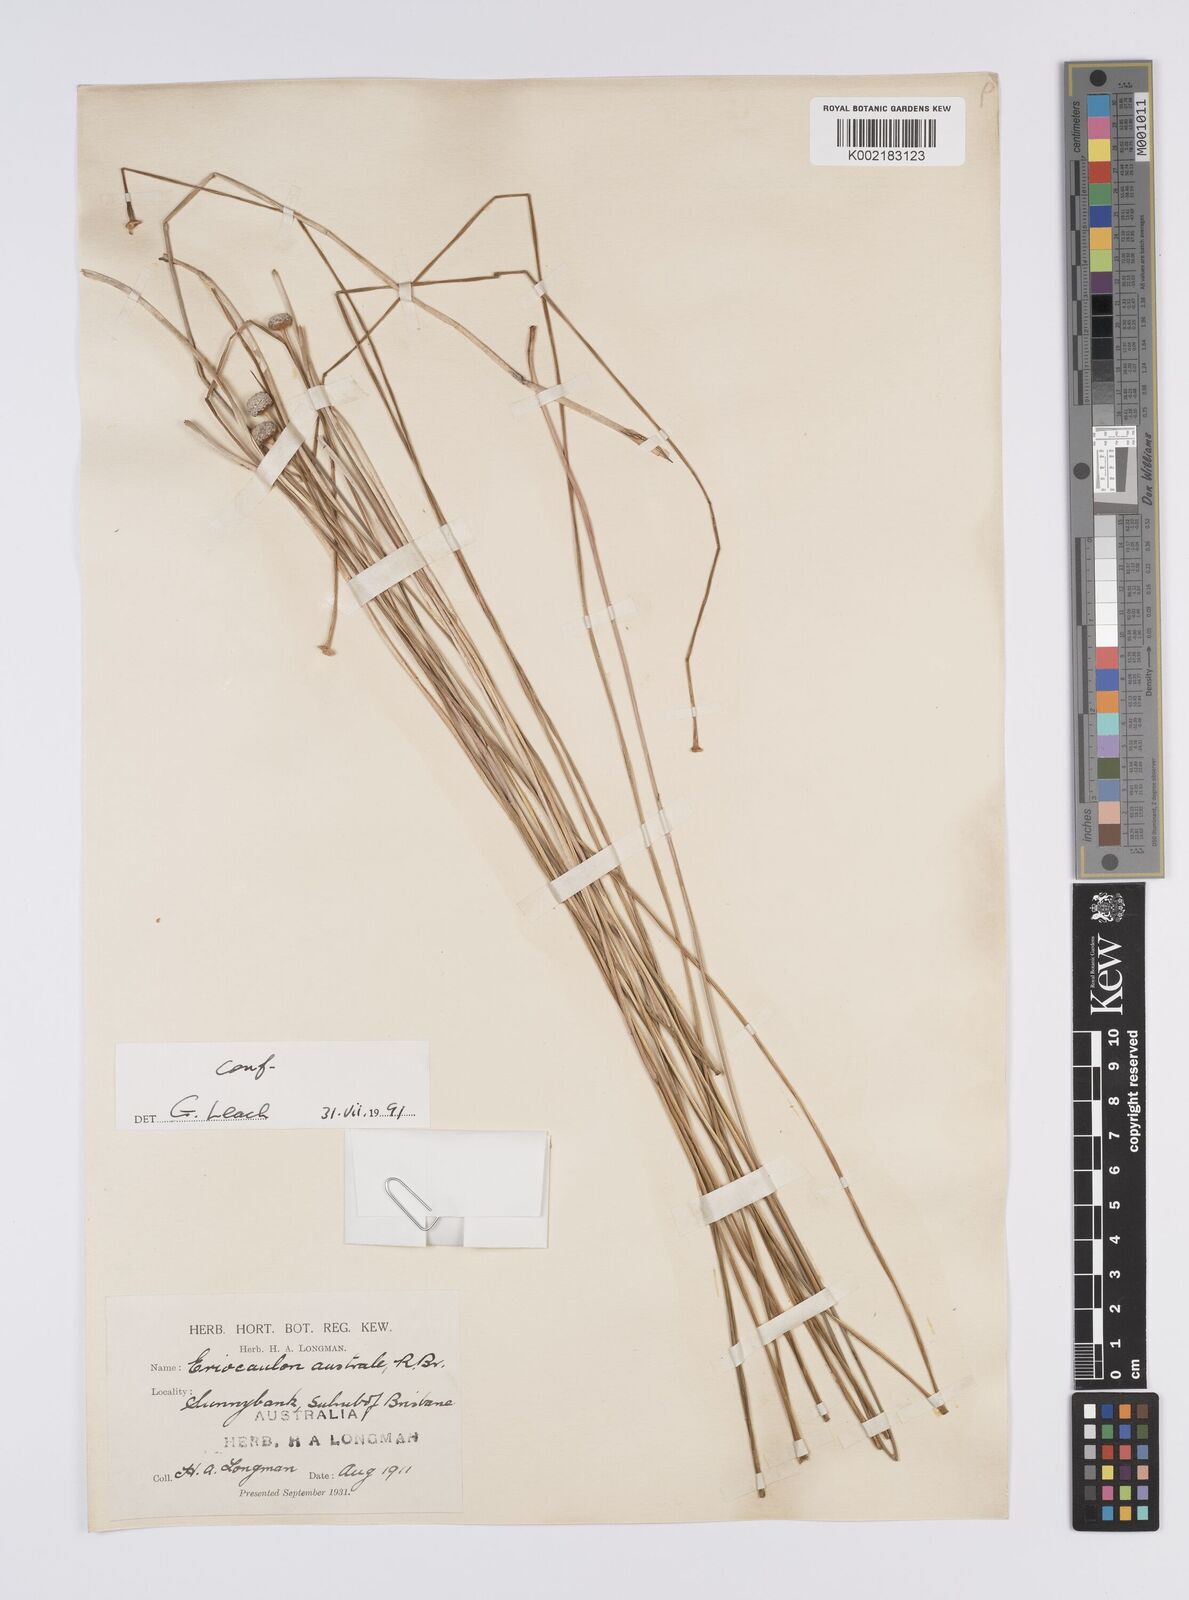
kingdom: Plantae
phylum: Tracheophyta
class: Liliopsida
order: Poales
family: Eriocaulaceae
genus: Eriocaulon
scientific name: Eriocaulon australe
